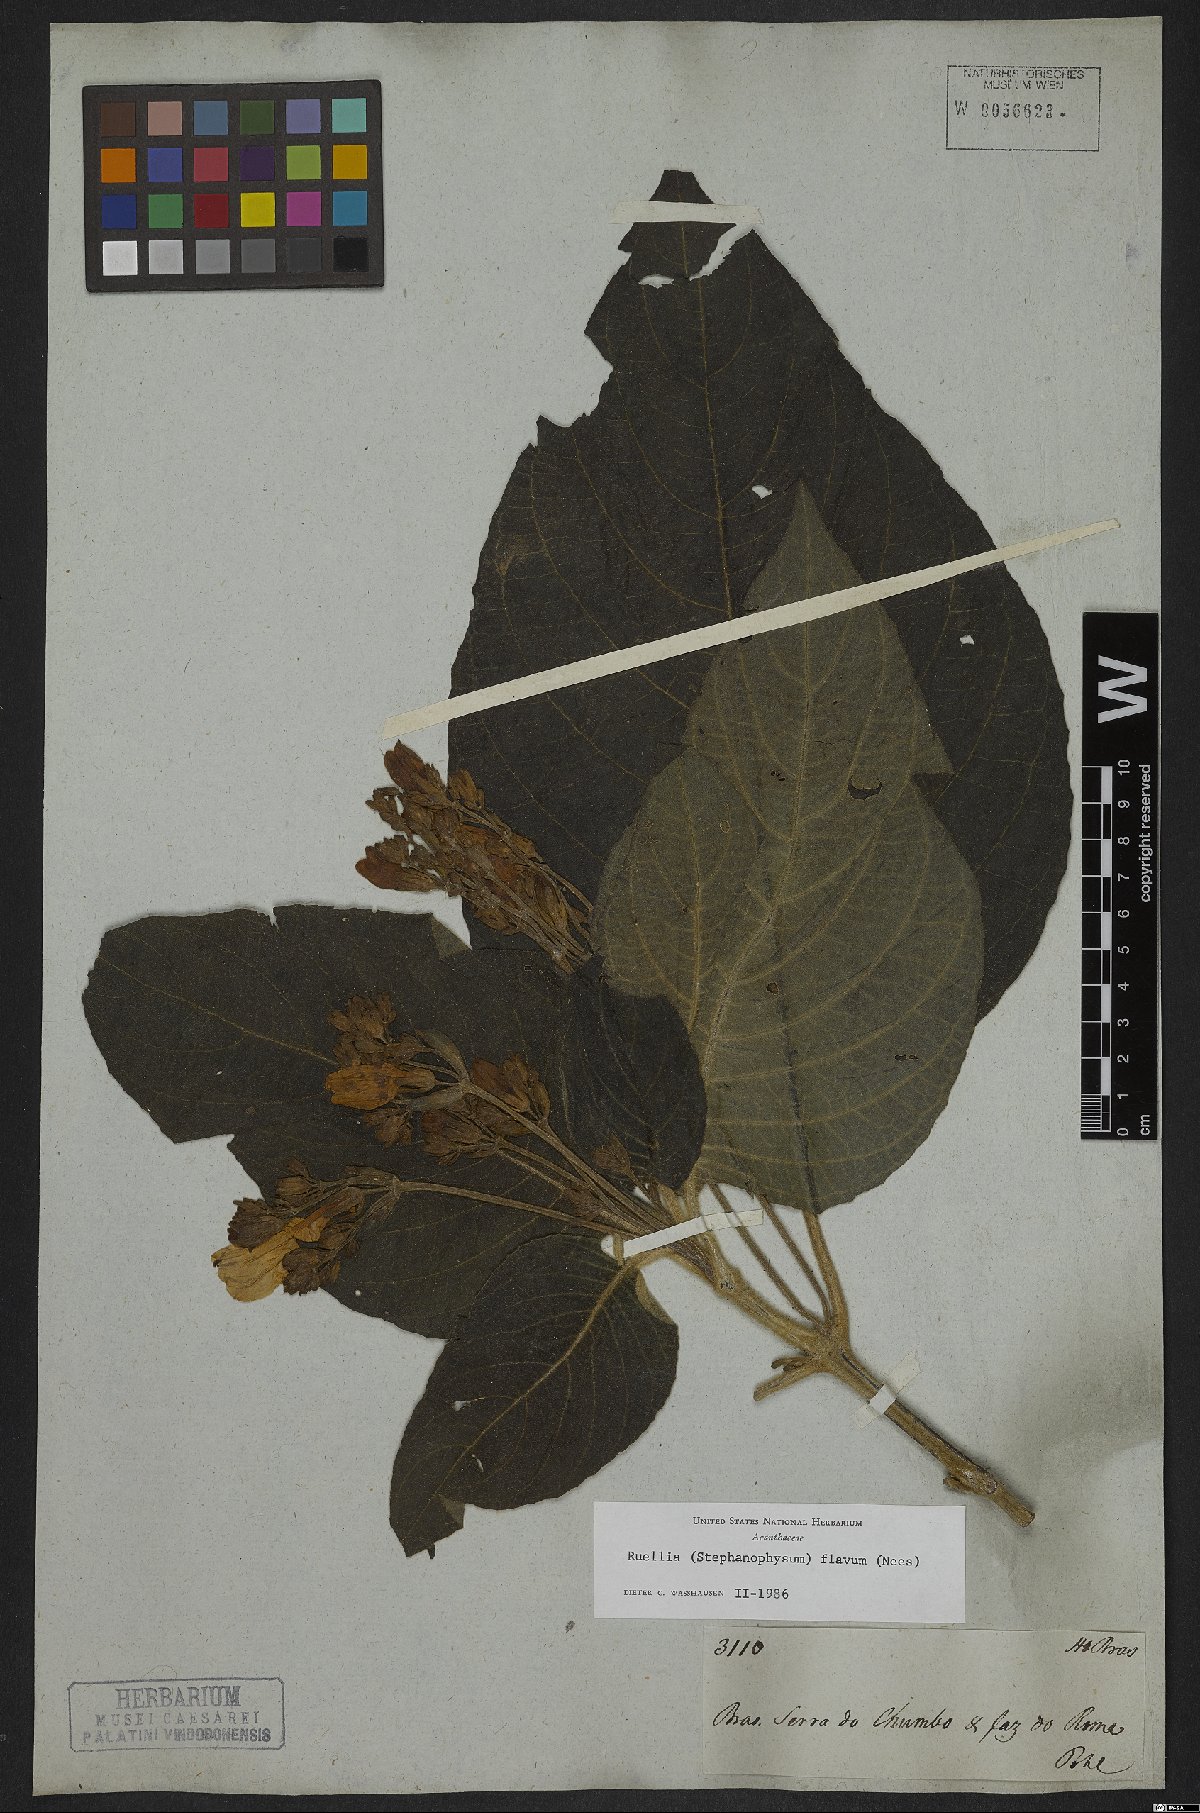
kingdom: Plantae
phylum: Tracheophyta
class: Magnoliopsida
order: Lamiales
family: Acanthaceae
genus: Ruellia
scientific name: Ruellia ochroleuca
